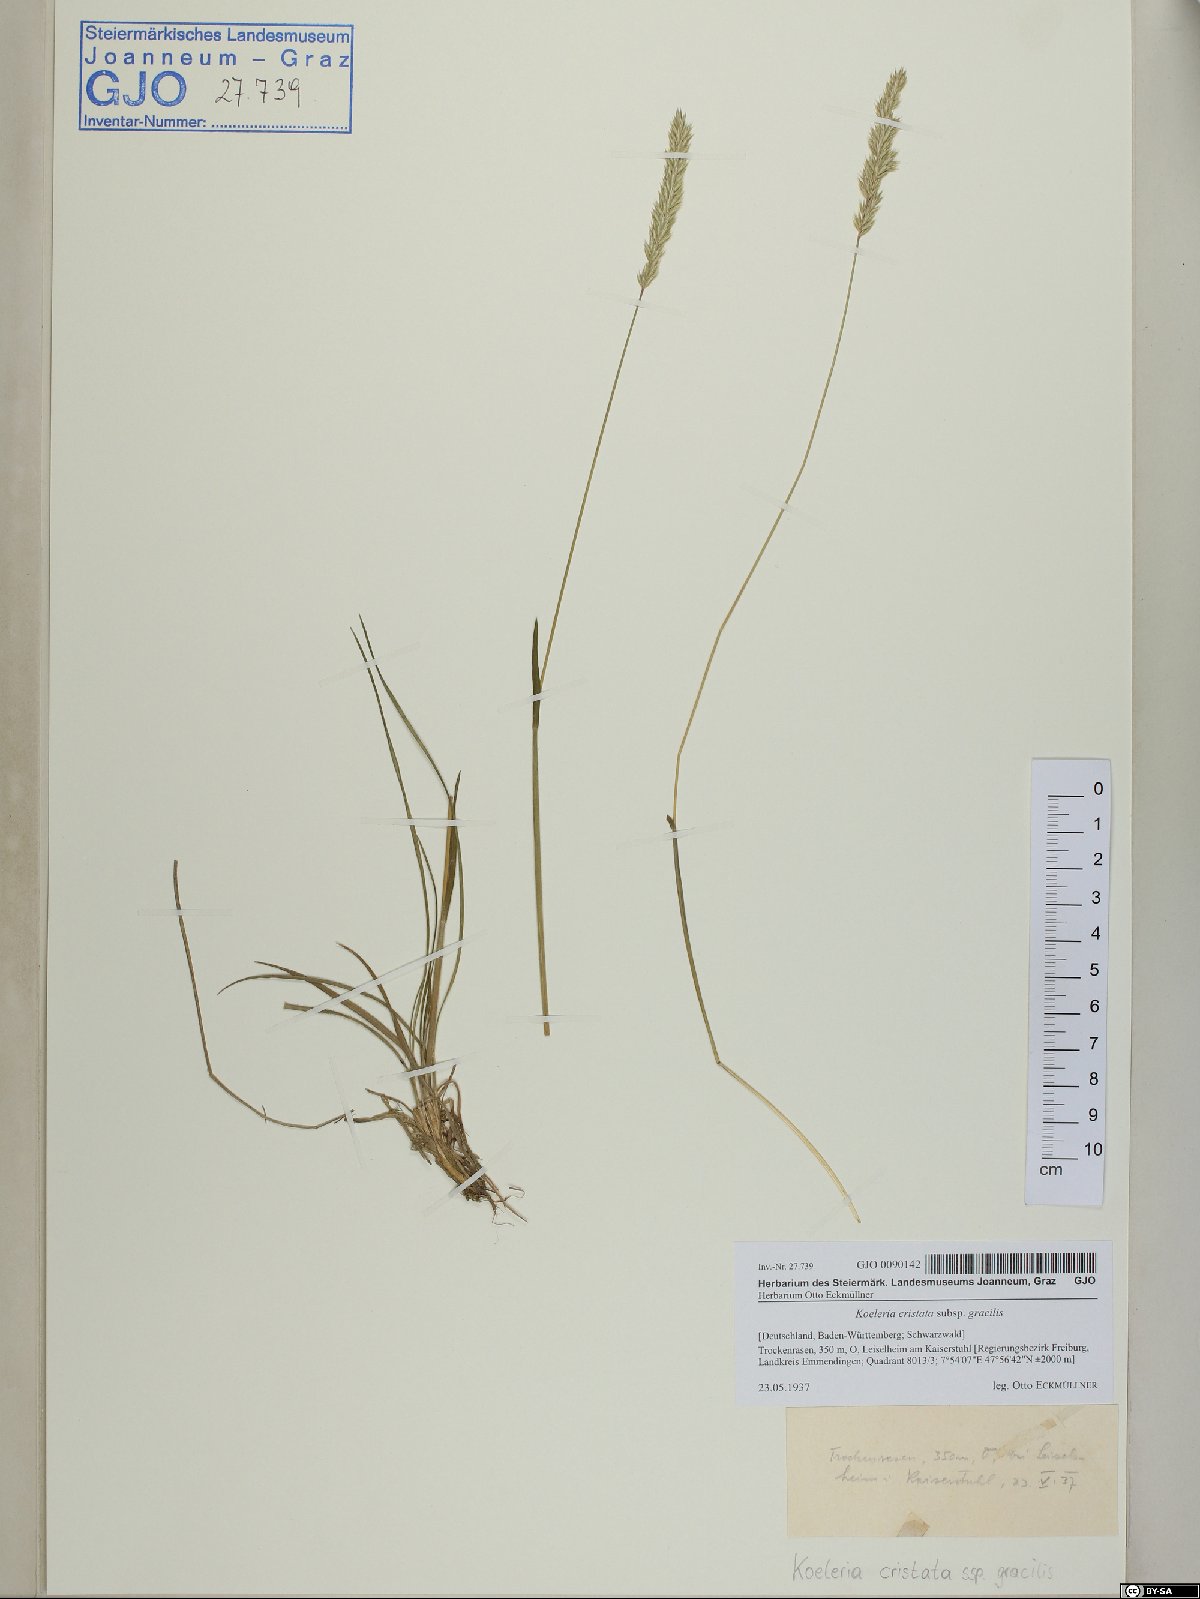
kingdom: Plantae
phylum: Tracheophyta
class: Liliopsida
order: Poales
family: Poaceae
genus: Koeleria
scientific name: Koeleria macrantha
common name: Crested hair-grass
